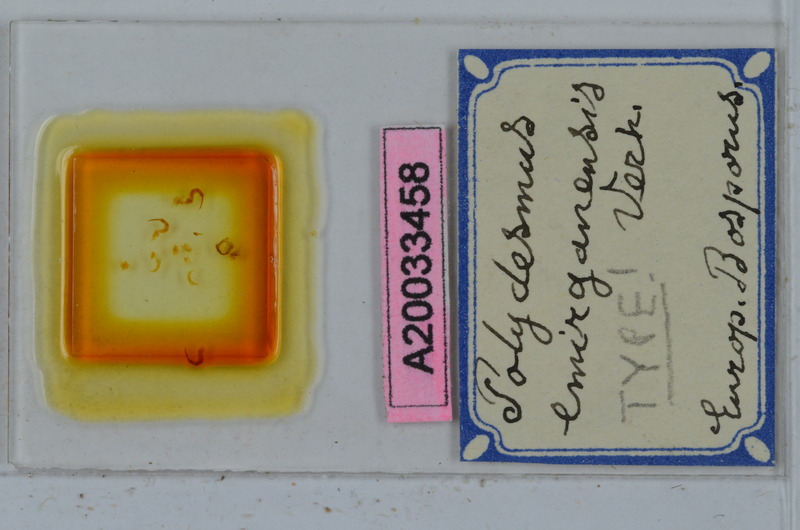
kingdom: Animalia
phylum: Arthropoda
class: Diplopoda
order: Polydesmida
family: Polydesmidae
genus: Polydesmus
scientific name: Polydesmus emirganensis
